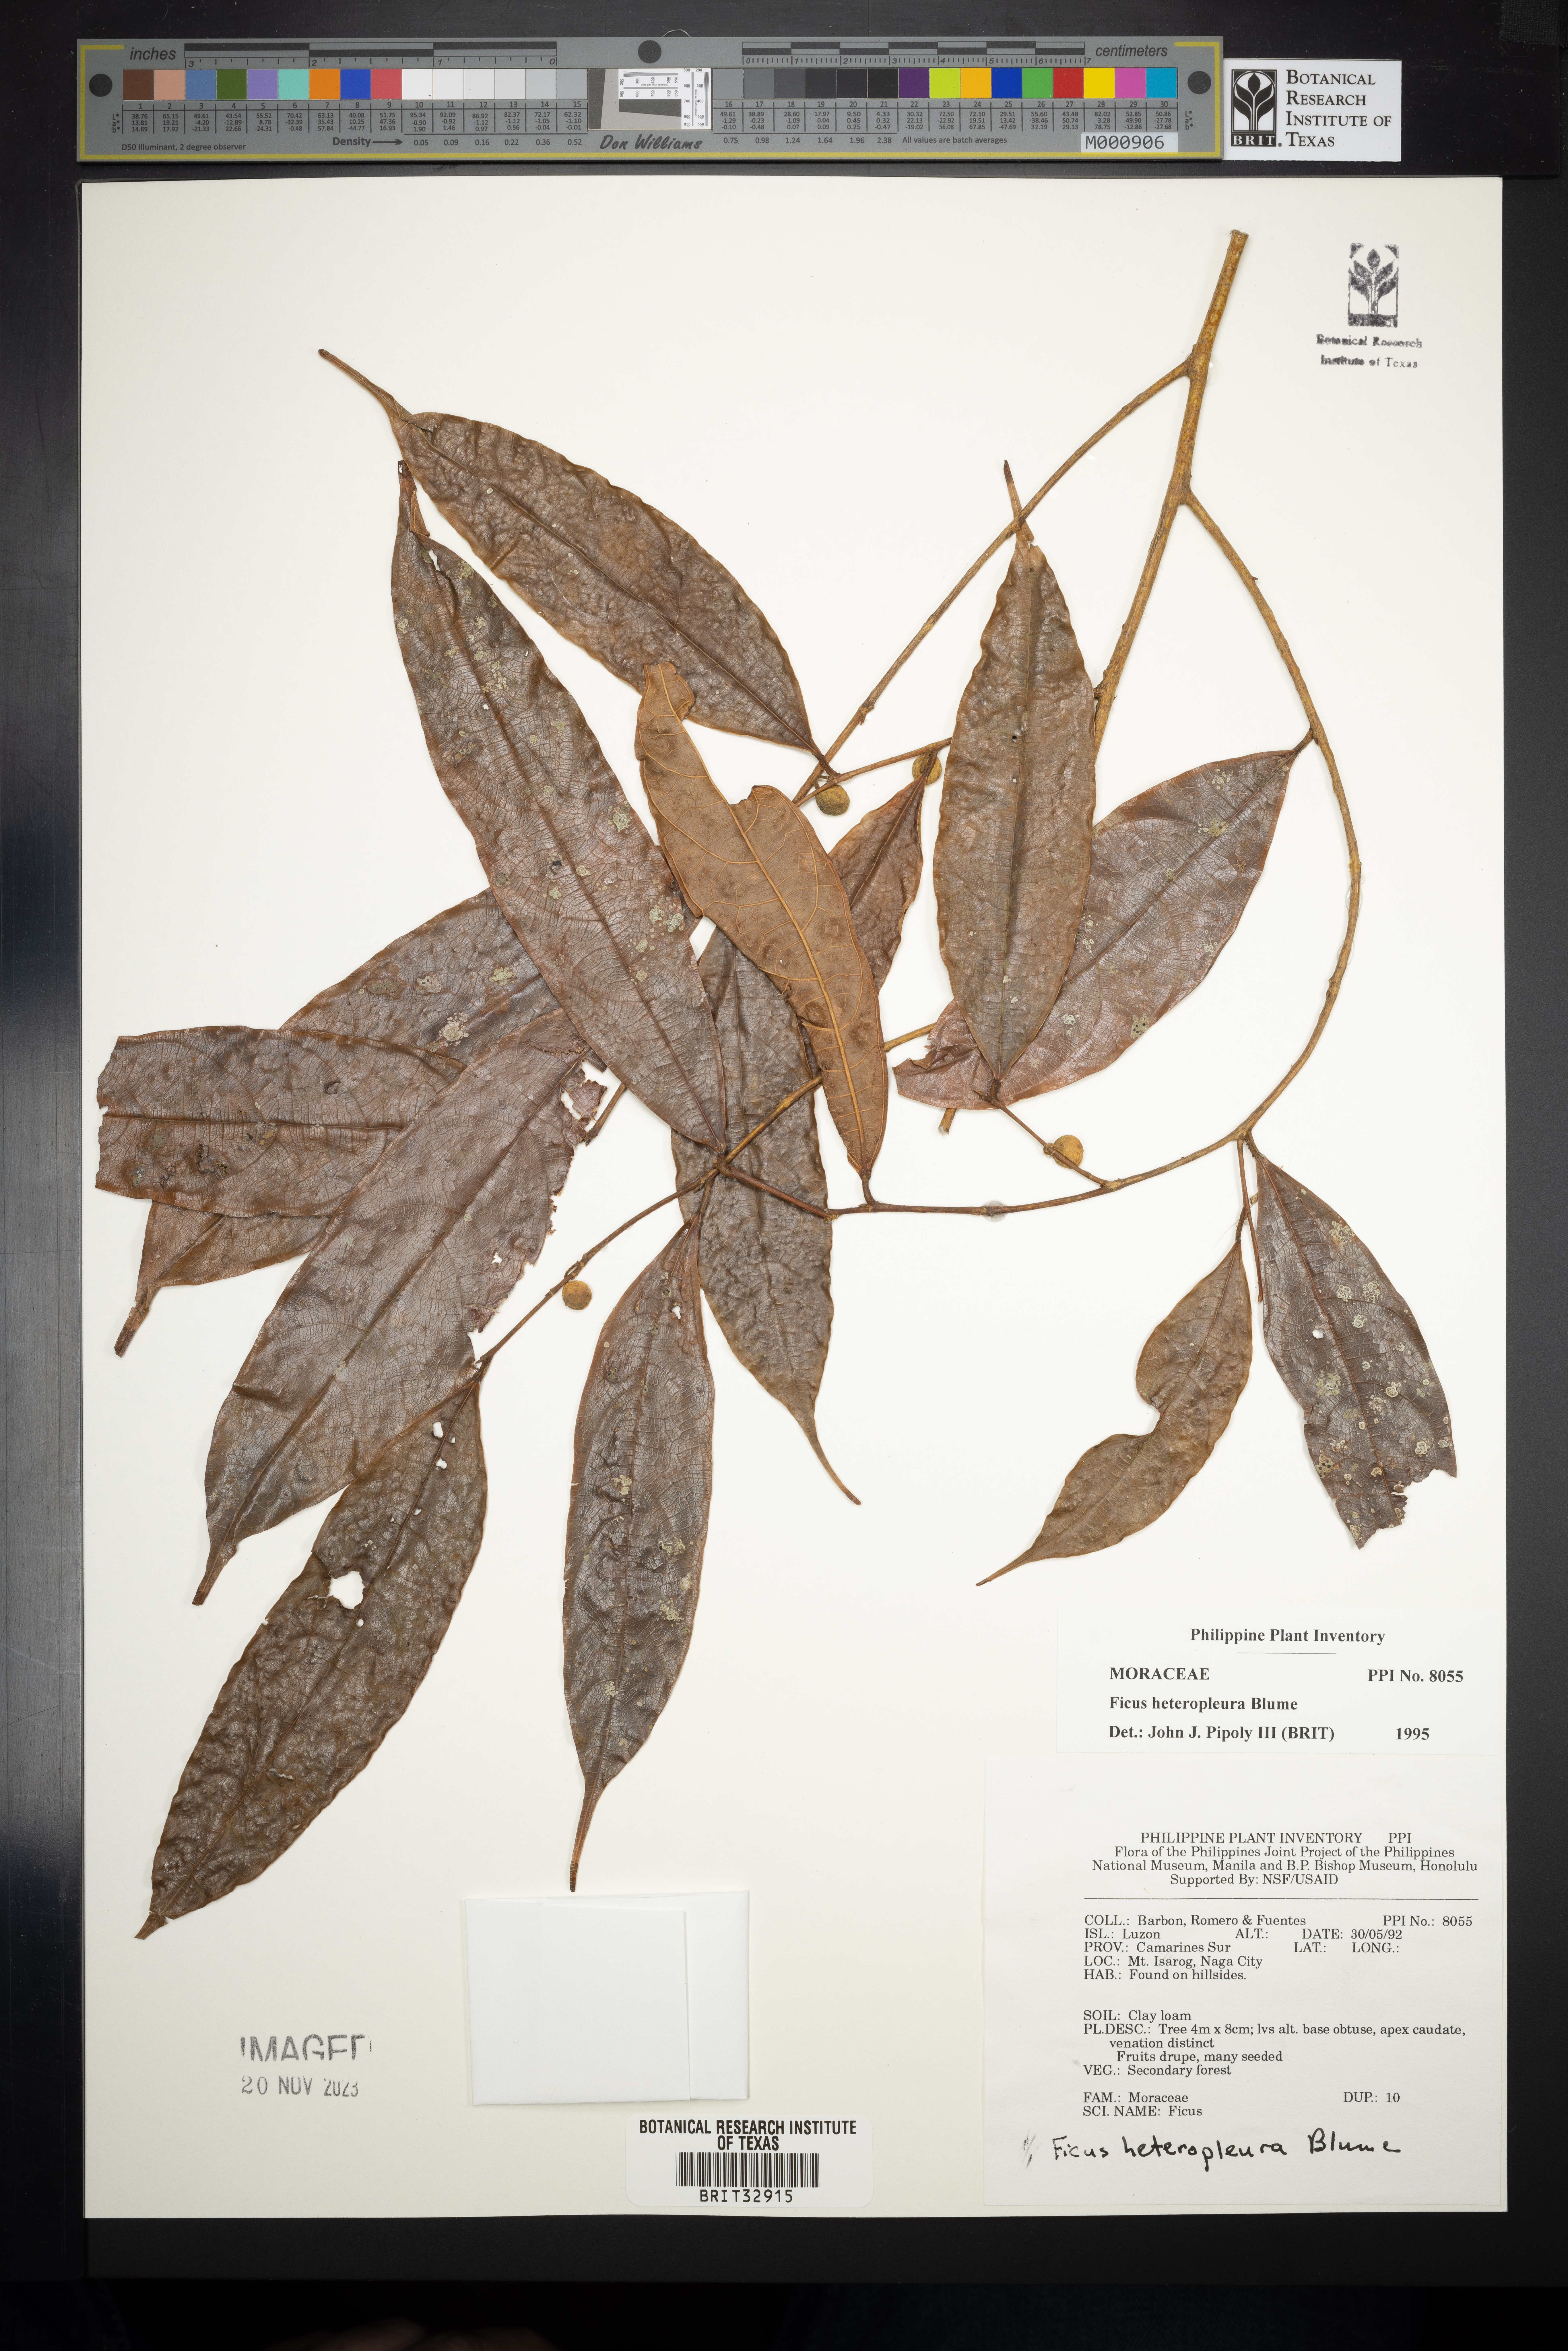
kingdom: Plantae
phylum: Tracheophyta
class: Magnoliopsida
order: Rosales
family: Moraceae
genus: Ficus
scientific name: Ficus heteropleura
